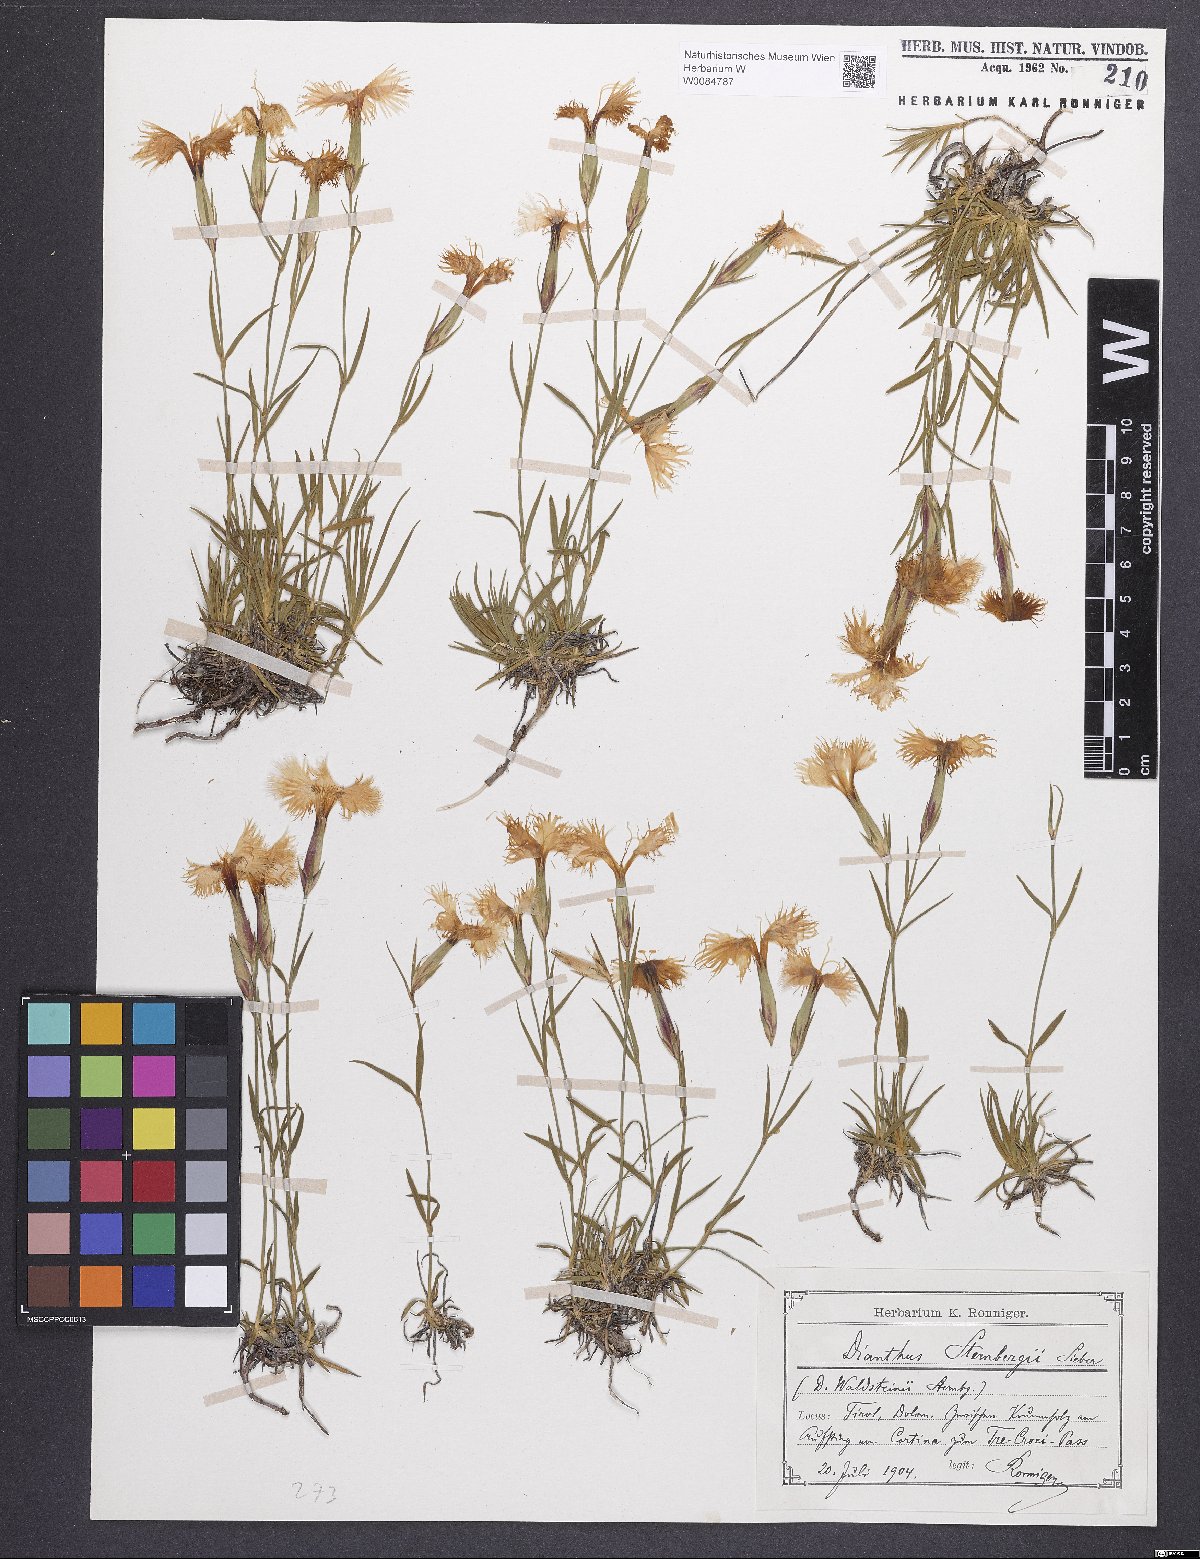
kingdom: Plantae
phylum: Tracheophyta
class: Magnoliopsida
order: Caryophyllales
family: Caryophyllaceae
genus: Dianthus
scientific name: Dianthus monspessulanus
